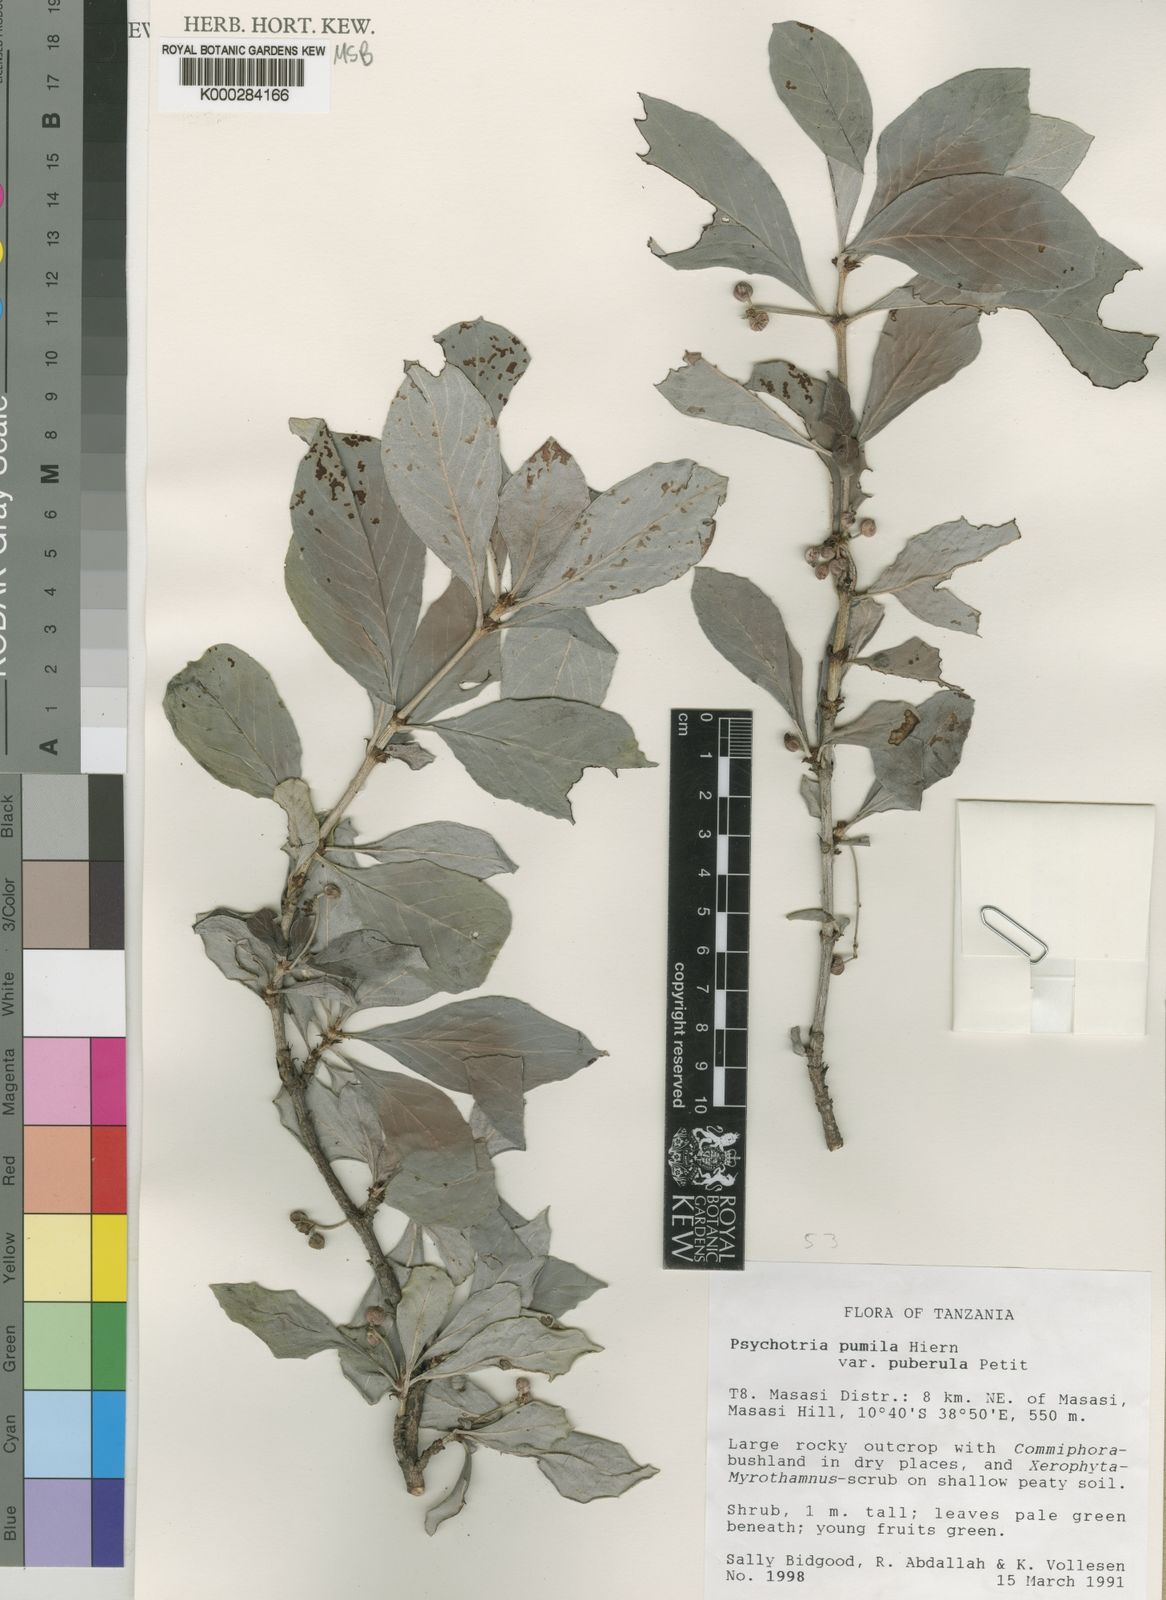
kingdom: Plantae
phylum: Tracheophyta
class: Magnoliopsida
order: Gentianales
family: Rubiaceae
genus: Psychotria
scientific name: Psychotria pumila
